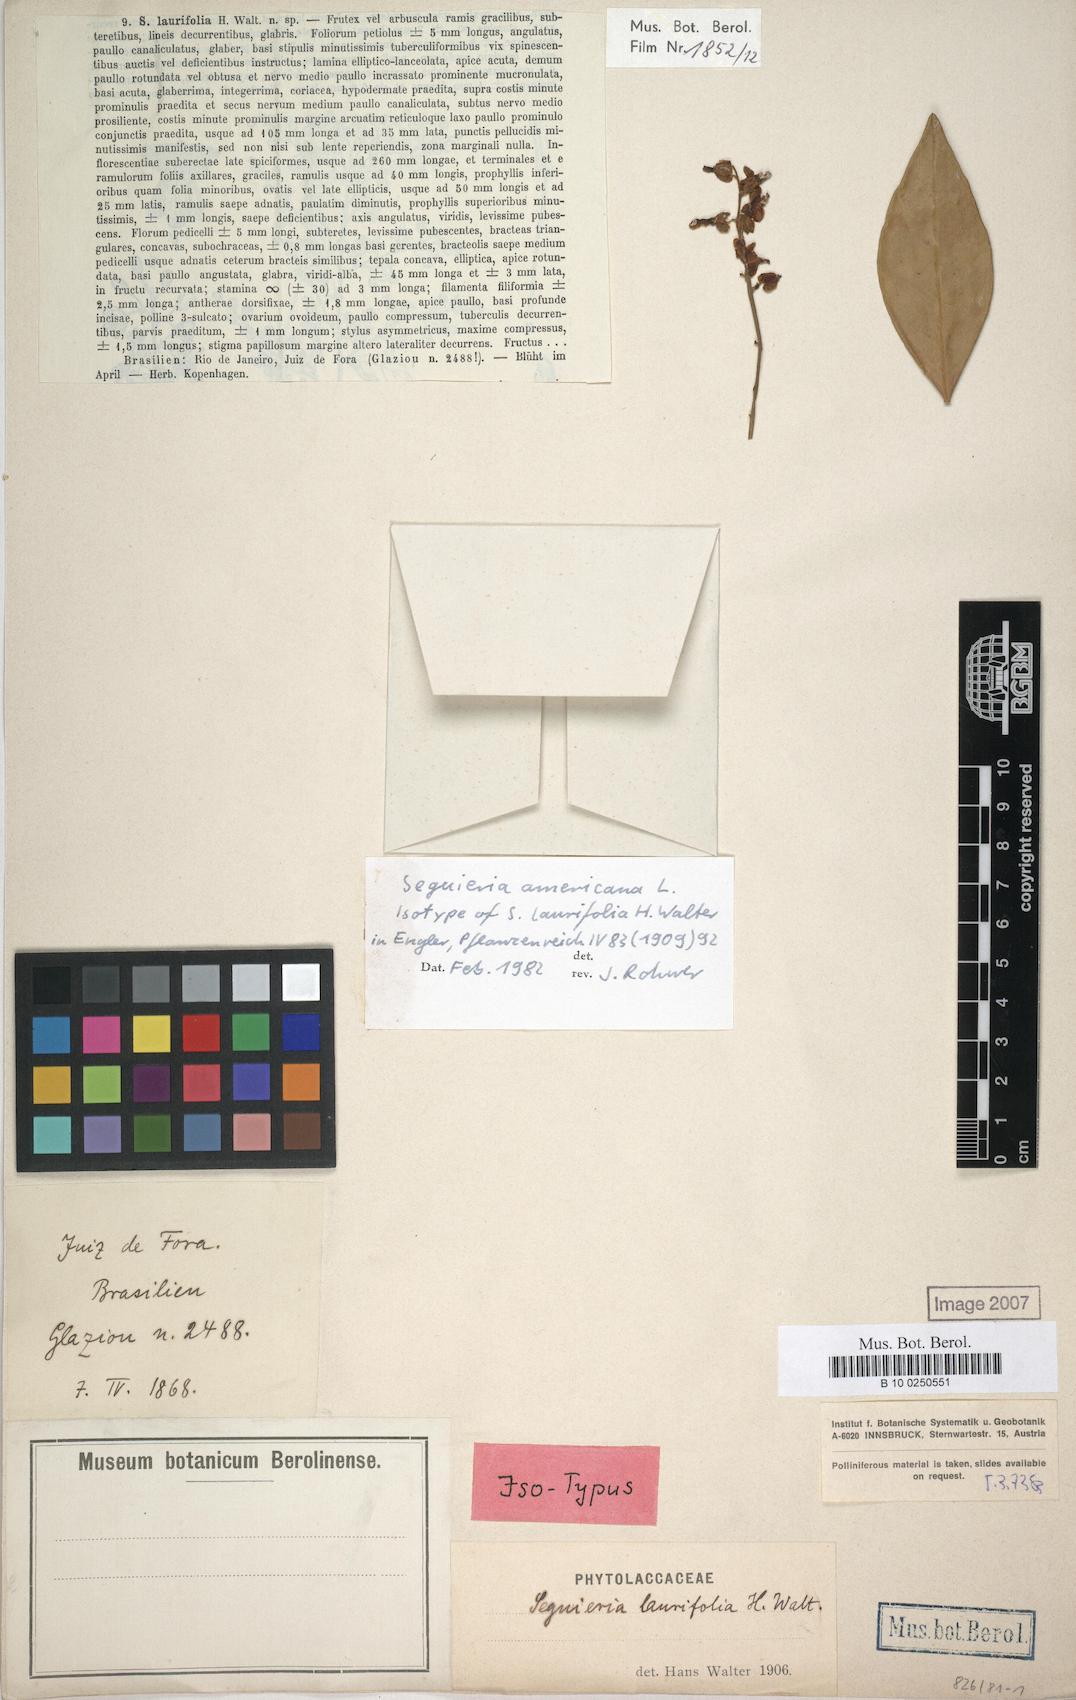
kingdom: Plantae
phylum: Tracheophyta
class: Magnoliopsida
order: Caryophyllales
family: Phytolaccaceae
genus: Seguieria
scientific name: Seguieria americana
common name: American seguieria
